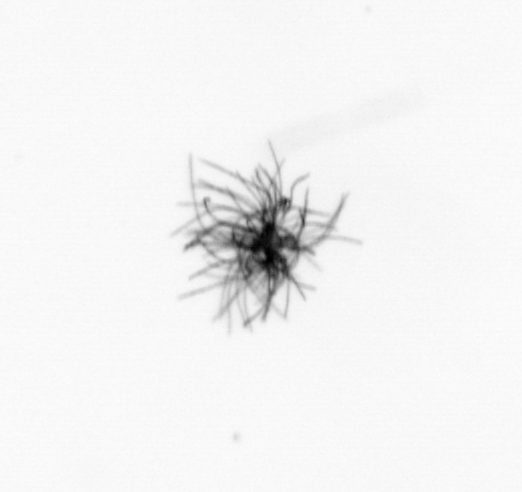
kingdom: Bacteria
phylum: Cyanobacteria
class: Cyanobacteriia
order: Cyanobacteriales
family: Microcoleaceae
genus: Trichodesmium
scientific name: Trichodesmium
